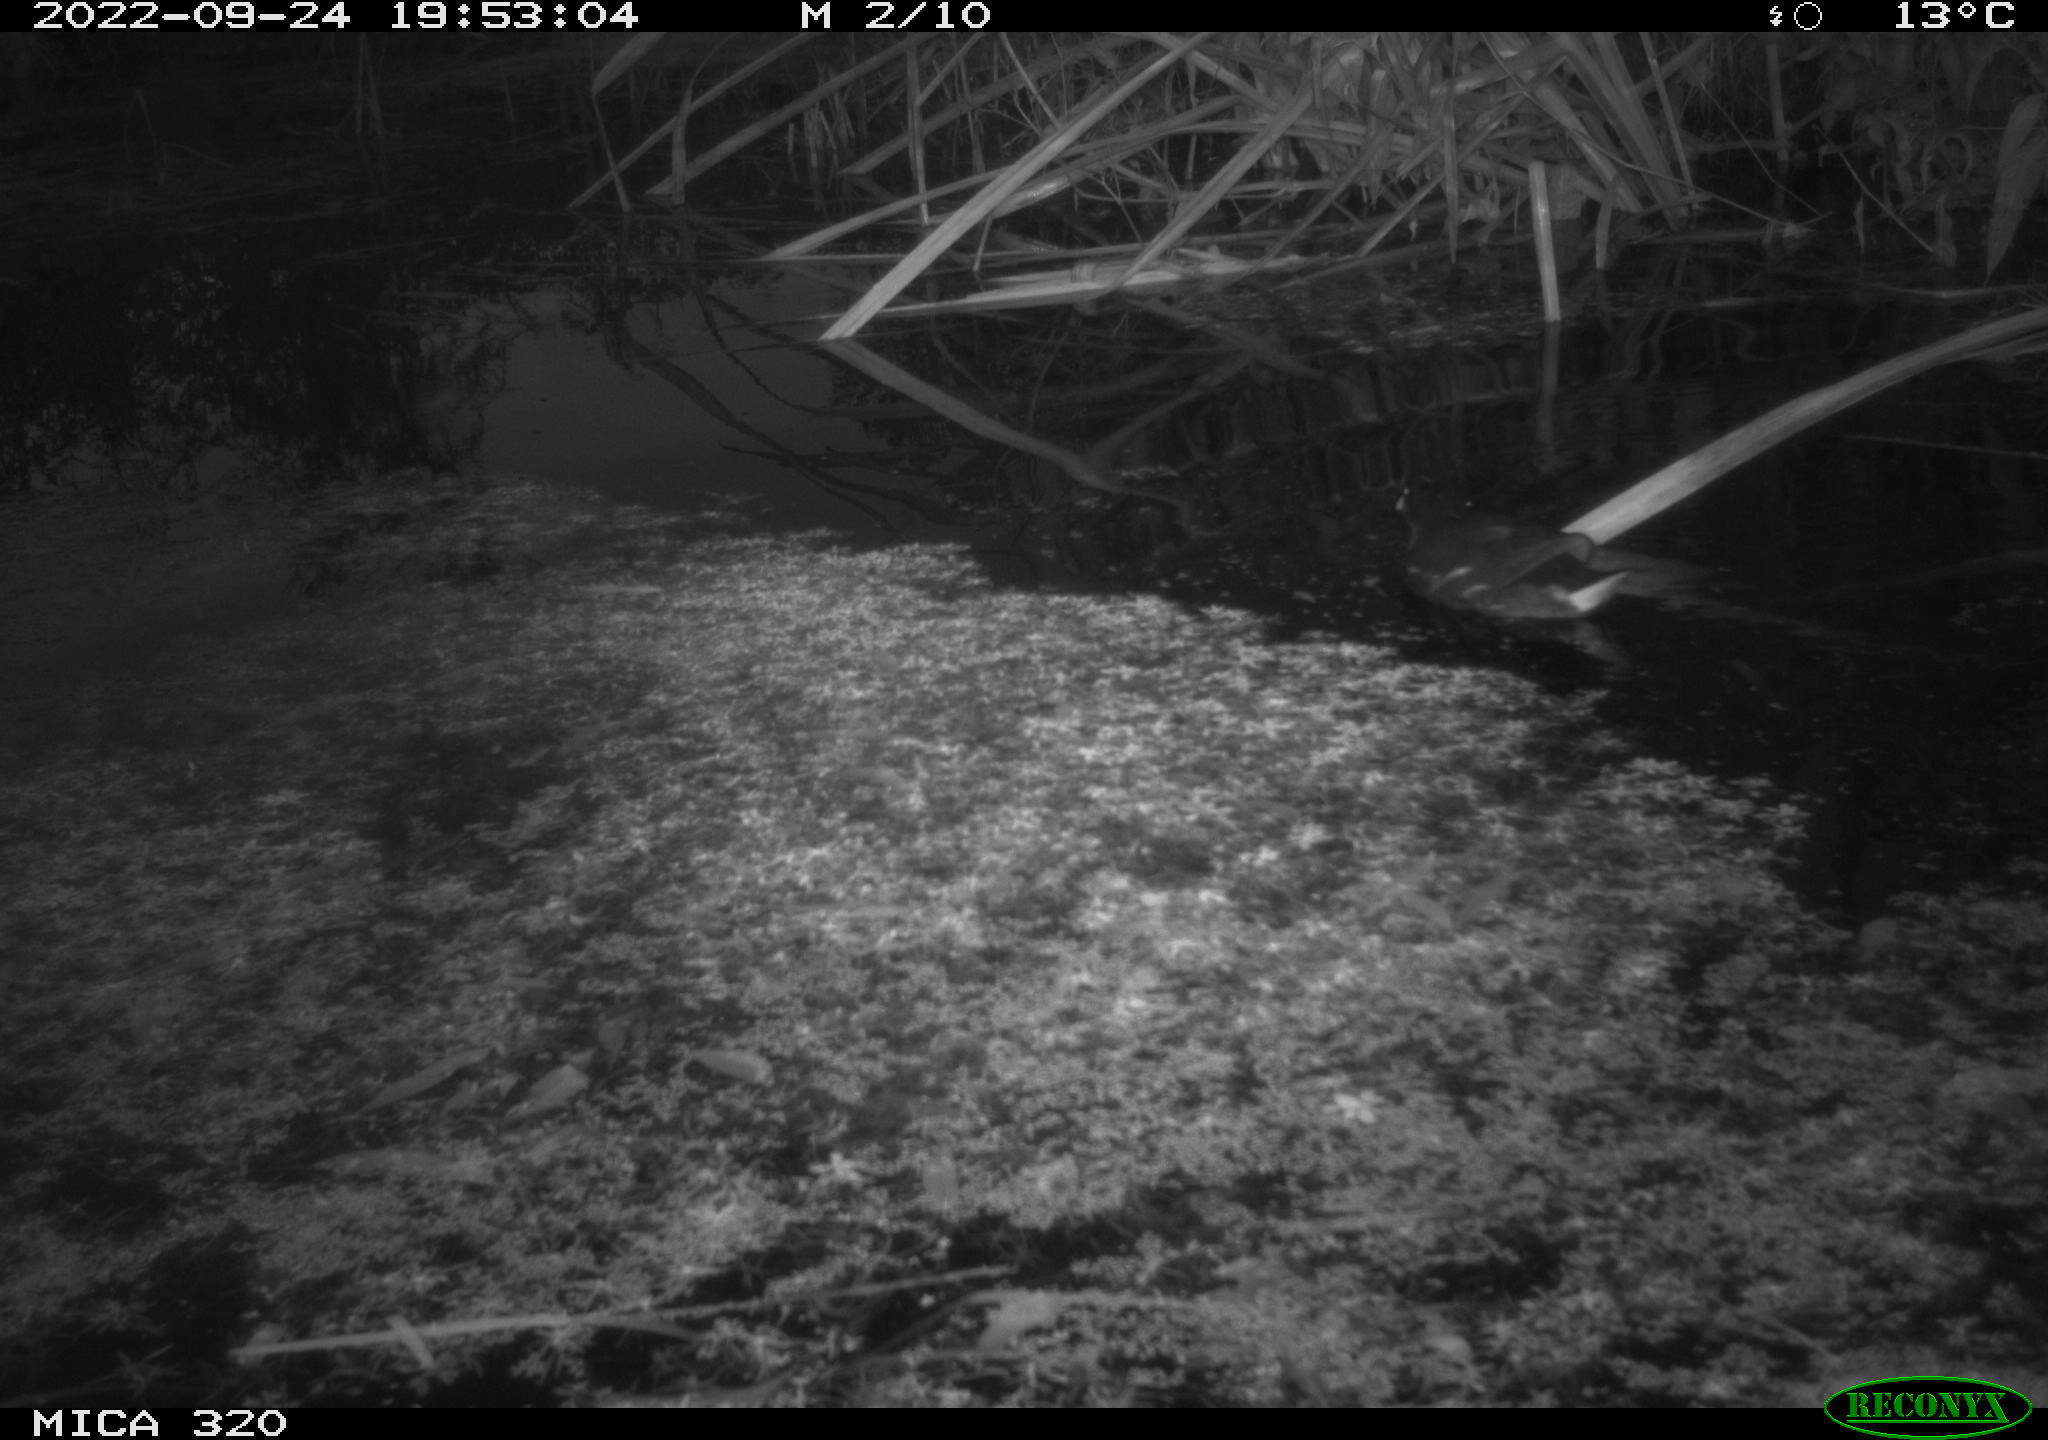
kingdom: Animalia
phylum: Chordata
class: Aves
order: Gruiformes
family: Rallidae
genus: Gallinula
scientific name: Gallinula chloropus
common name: Common moorhen
